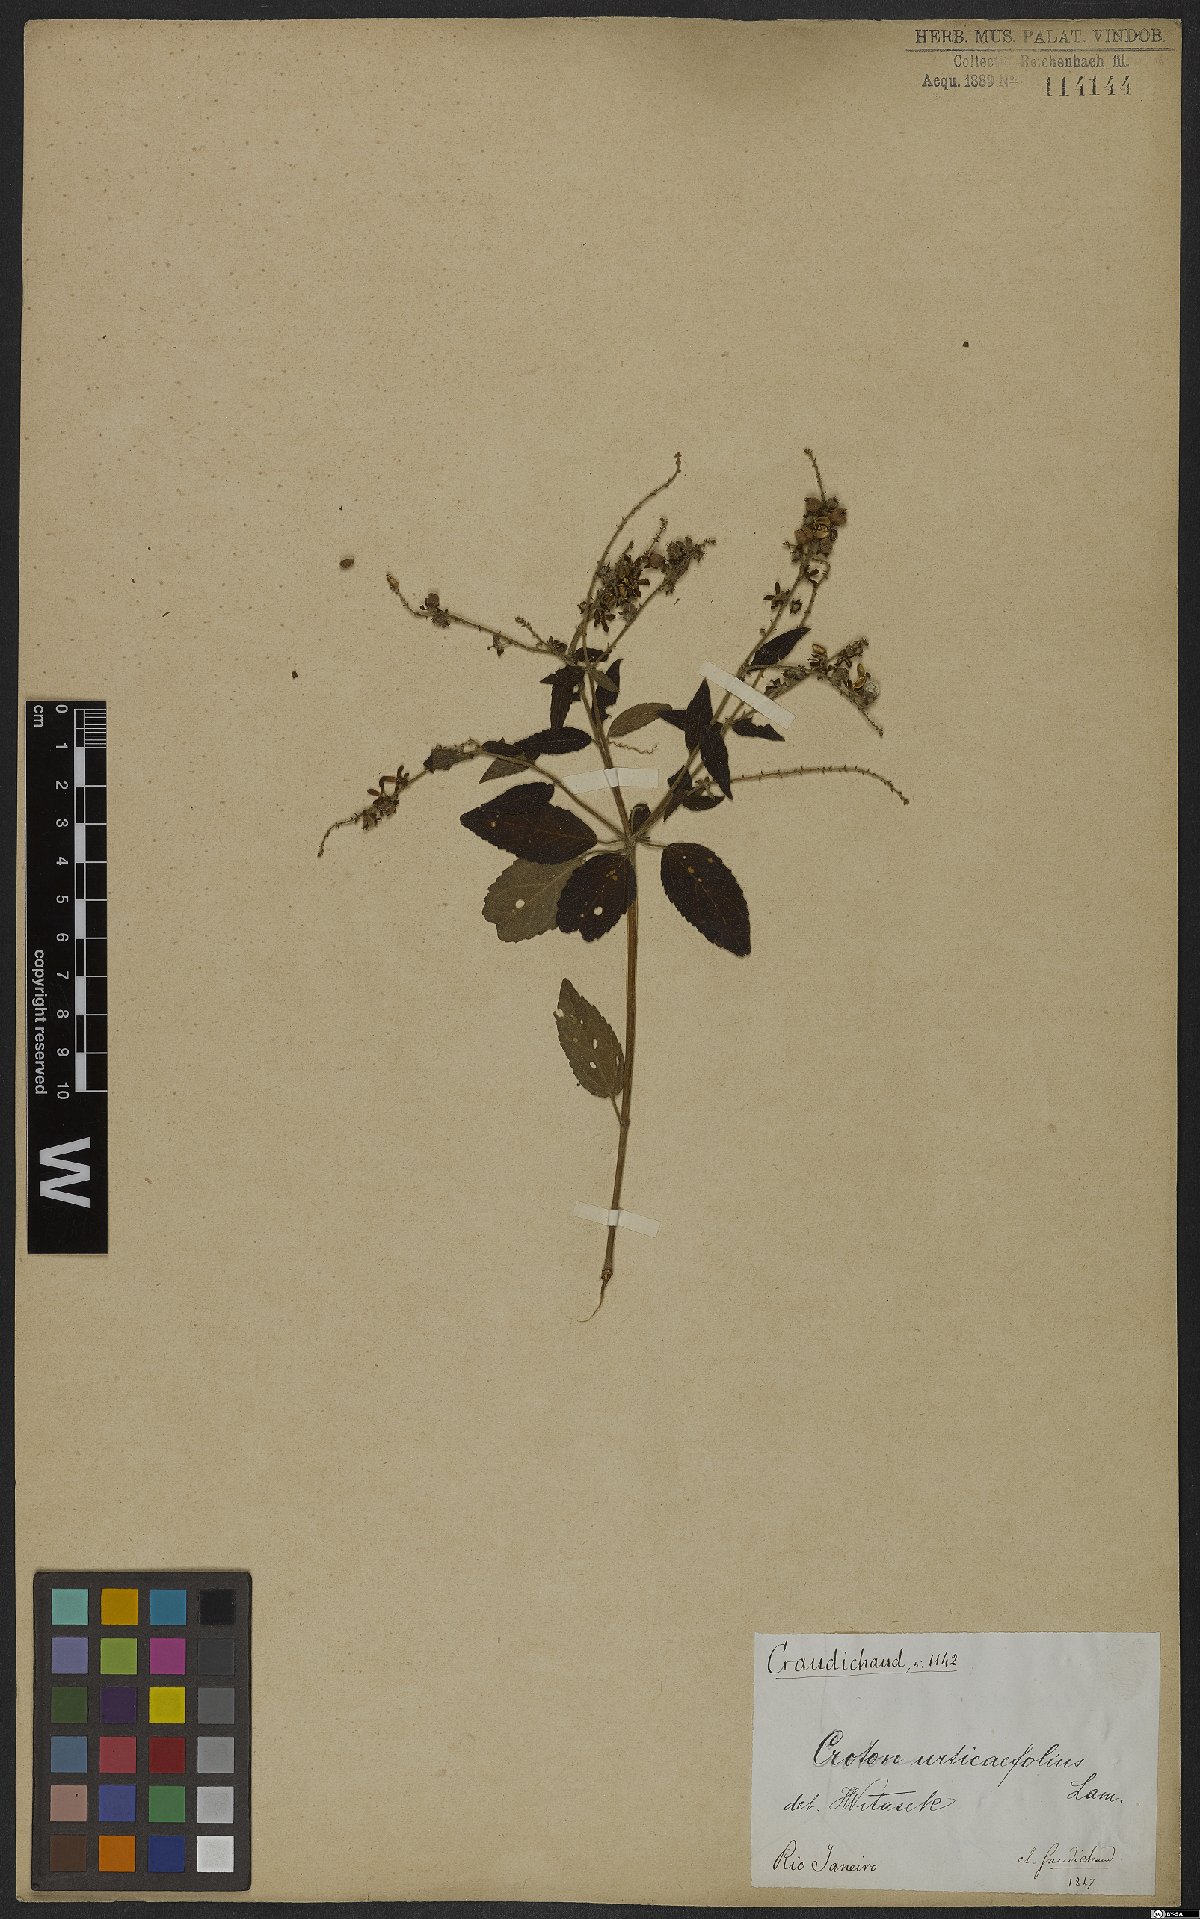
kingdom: Plantae
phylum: Tracheophyta
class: Magnoliopsida
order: Malpighiales
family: Euphorbiaceae
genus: Croton
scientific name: Croton urticifolius
